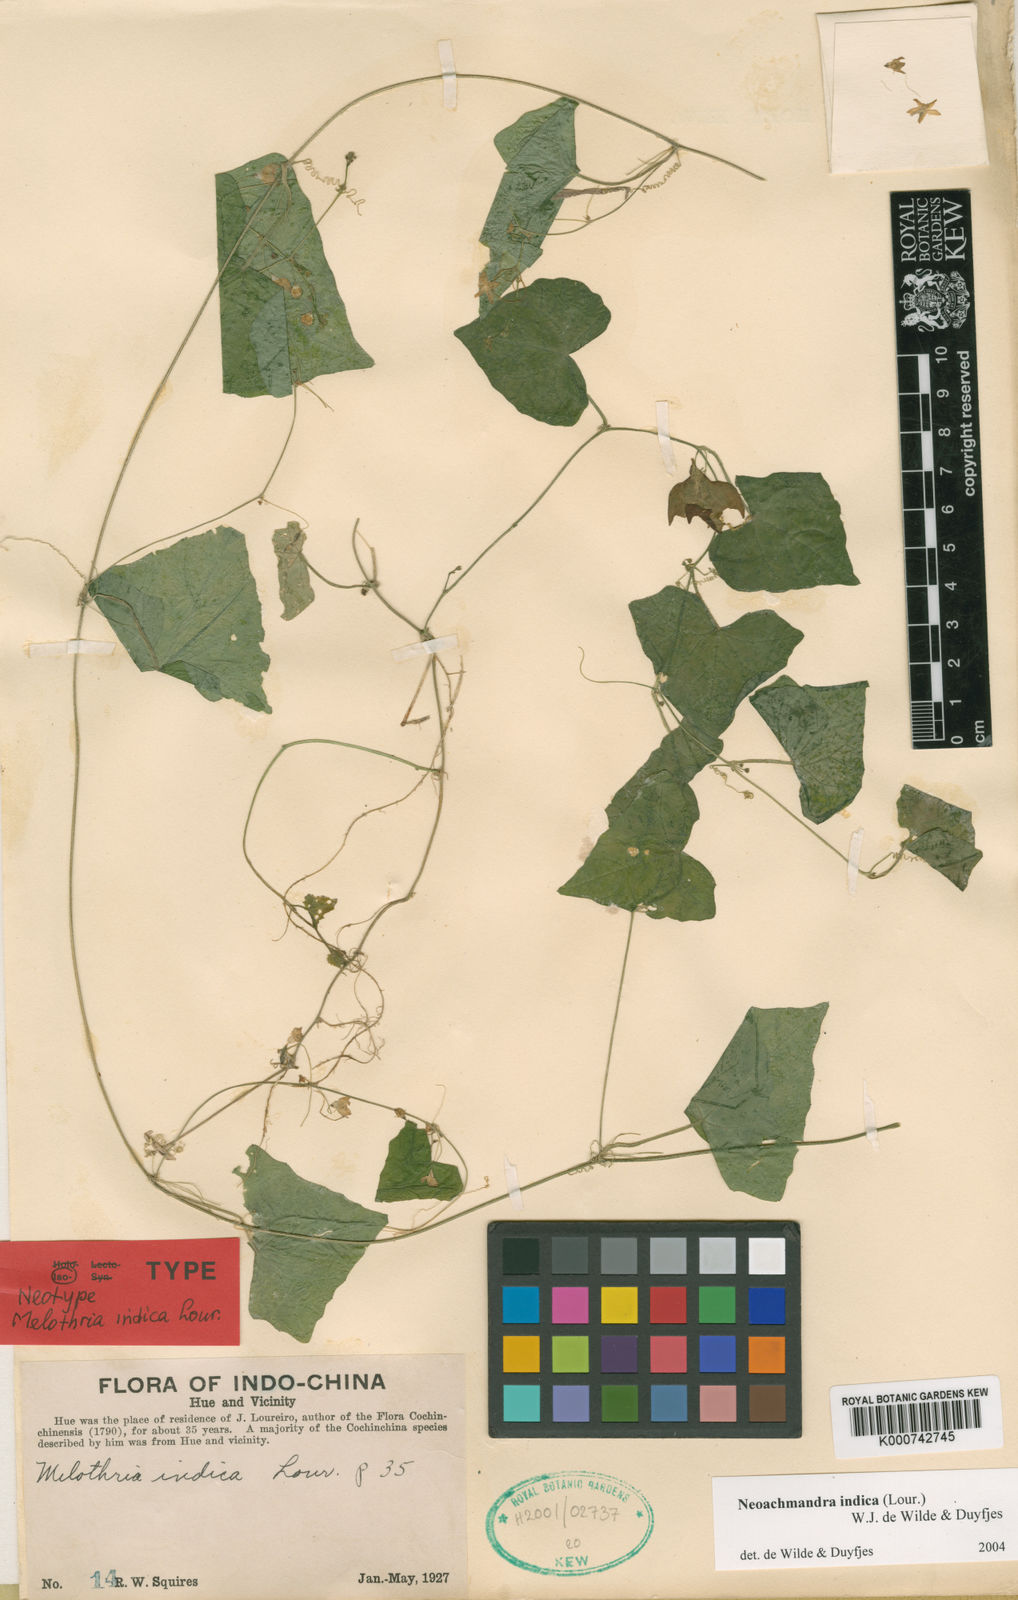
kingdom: Plantae
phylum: Tracheophyta
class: Magnoliopsida
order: Cucurbitales
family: Cucurbitaceae
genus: Zehneria
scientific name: Zehneria odorata
